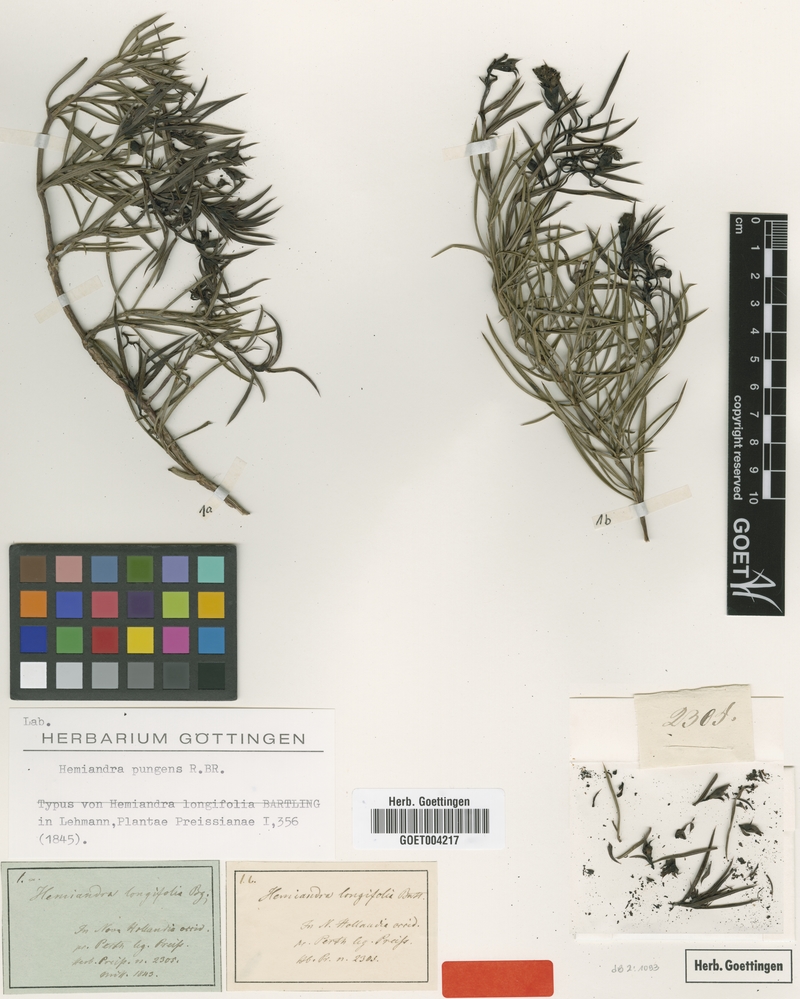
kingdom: Plantae
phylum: Tracheophyta
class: Magnoliopsida
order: Lamiales
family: Lamiaceae
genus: Hemiandra
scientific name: Hemiandra pungens
